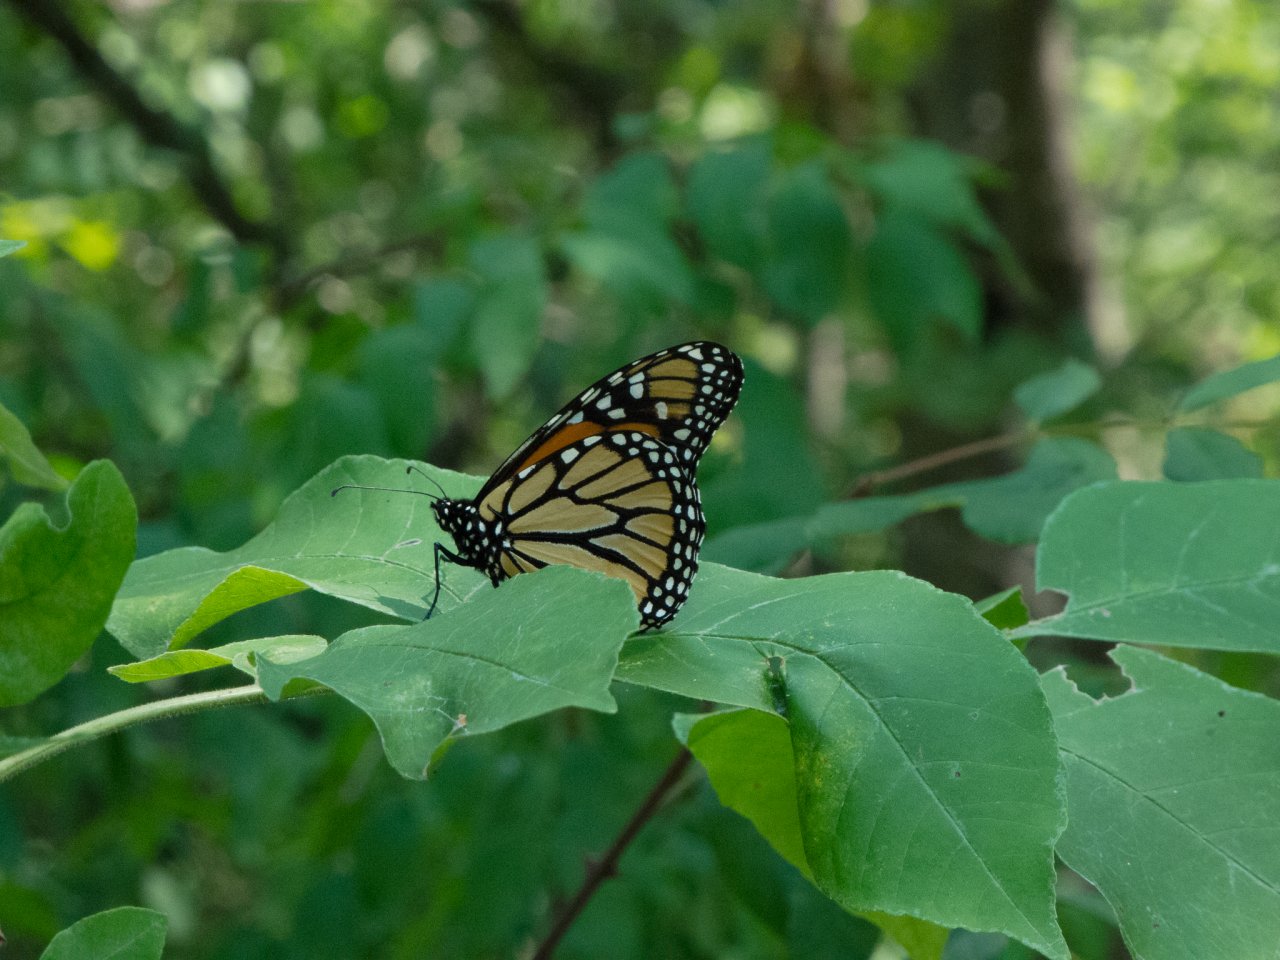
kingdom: Animalia
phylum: Arthropoda
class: Insecta
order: Lepidoptera
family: Nymphalidae
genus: Danaus
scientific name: Danaus plexippus
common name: Monarch
